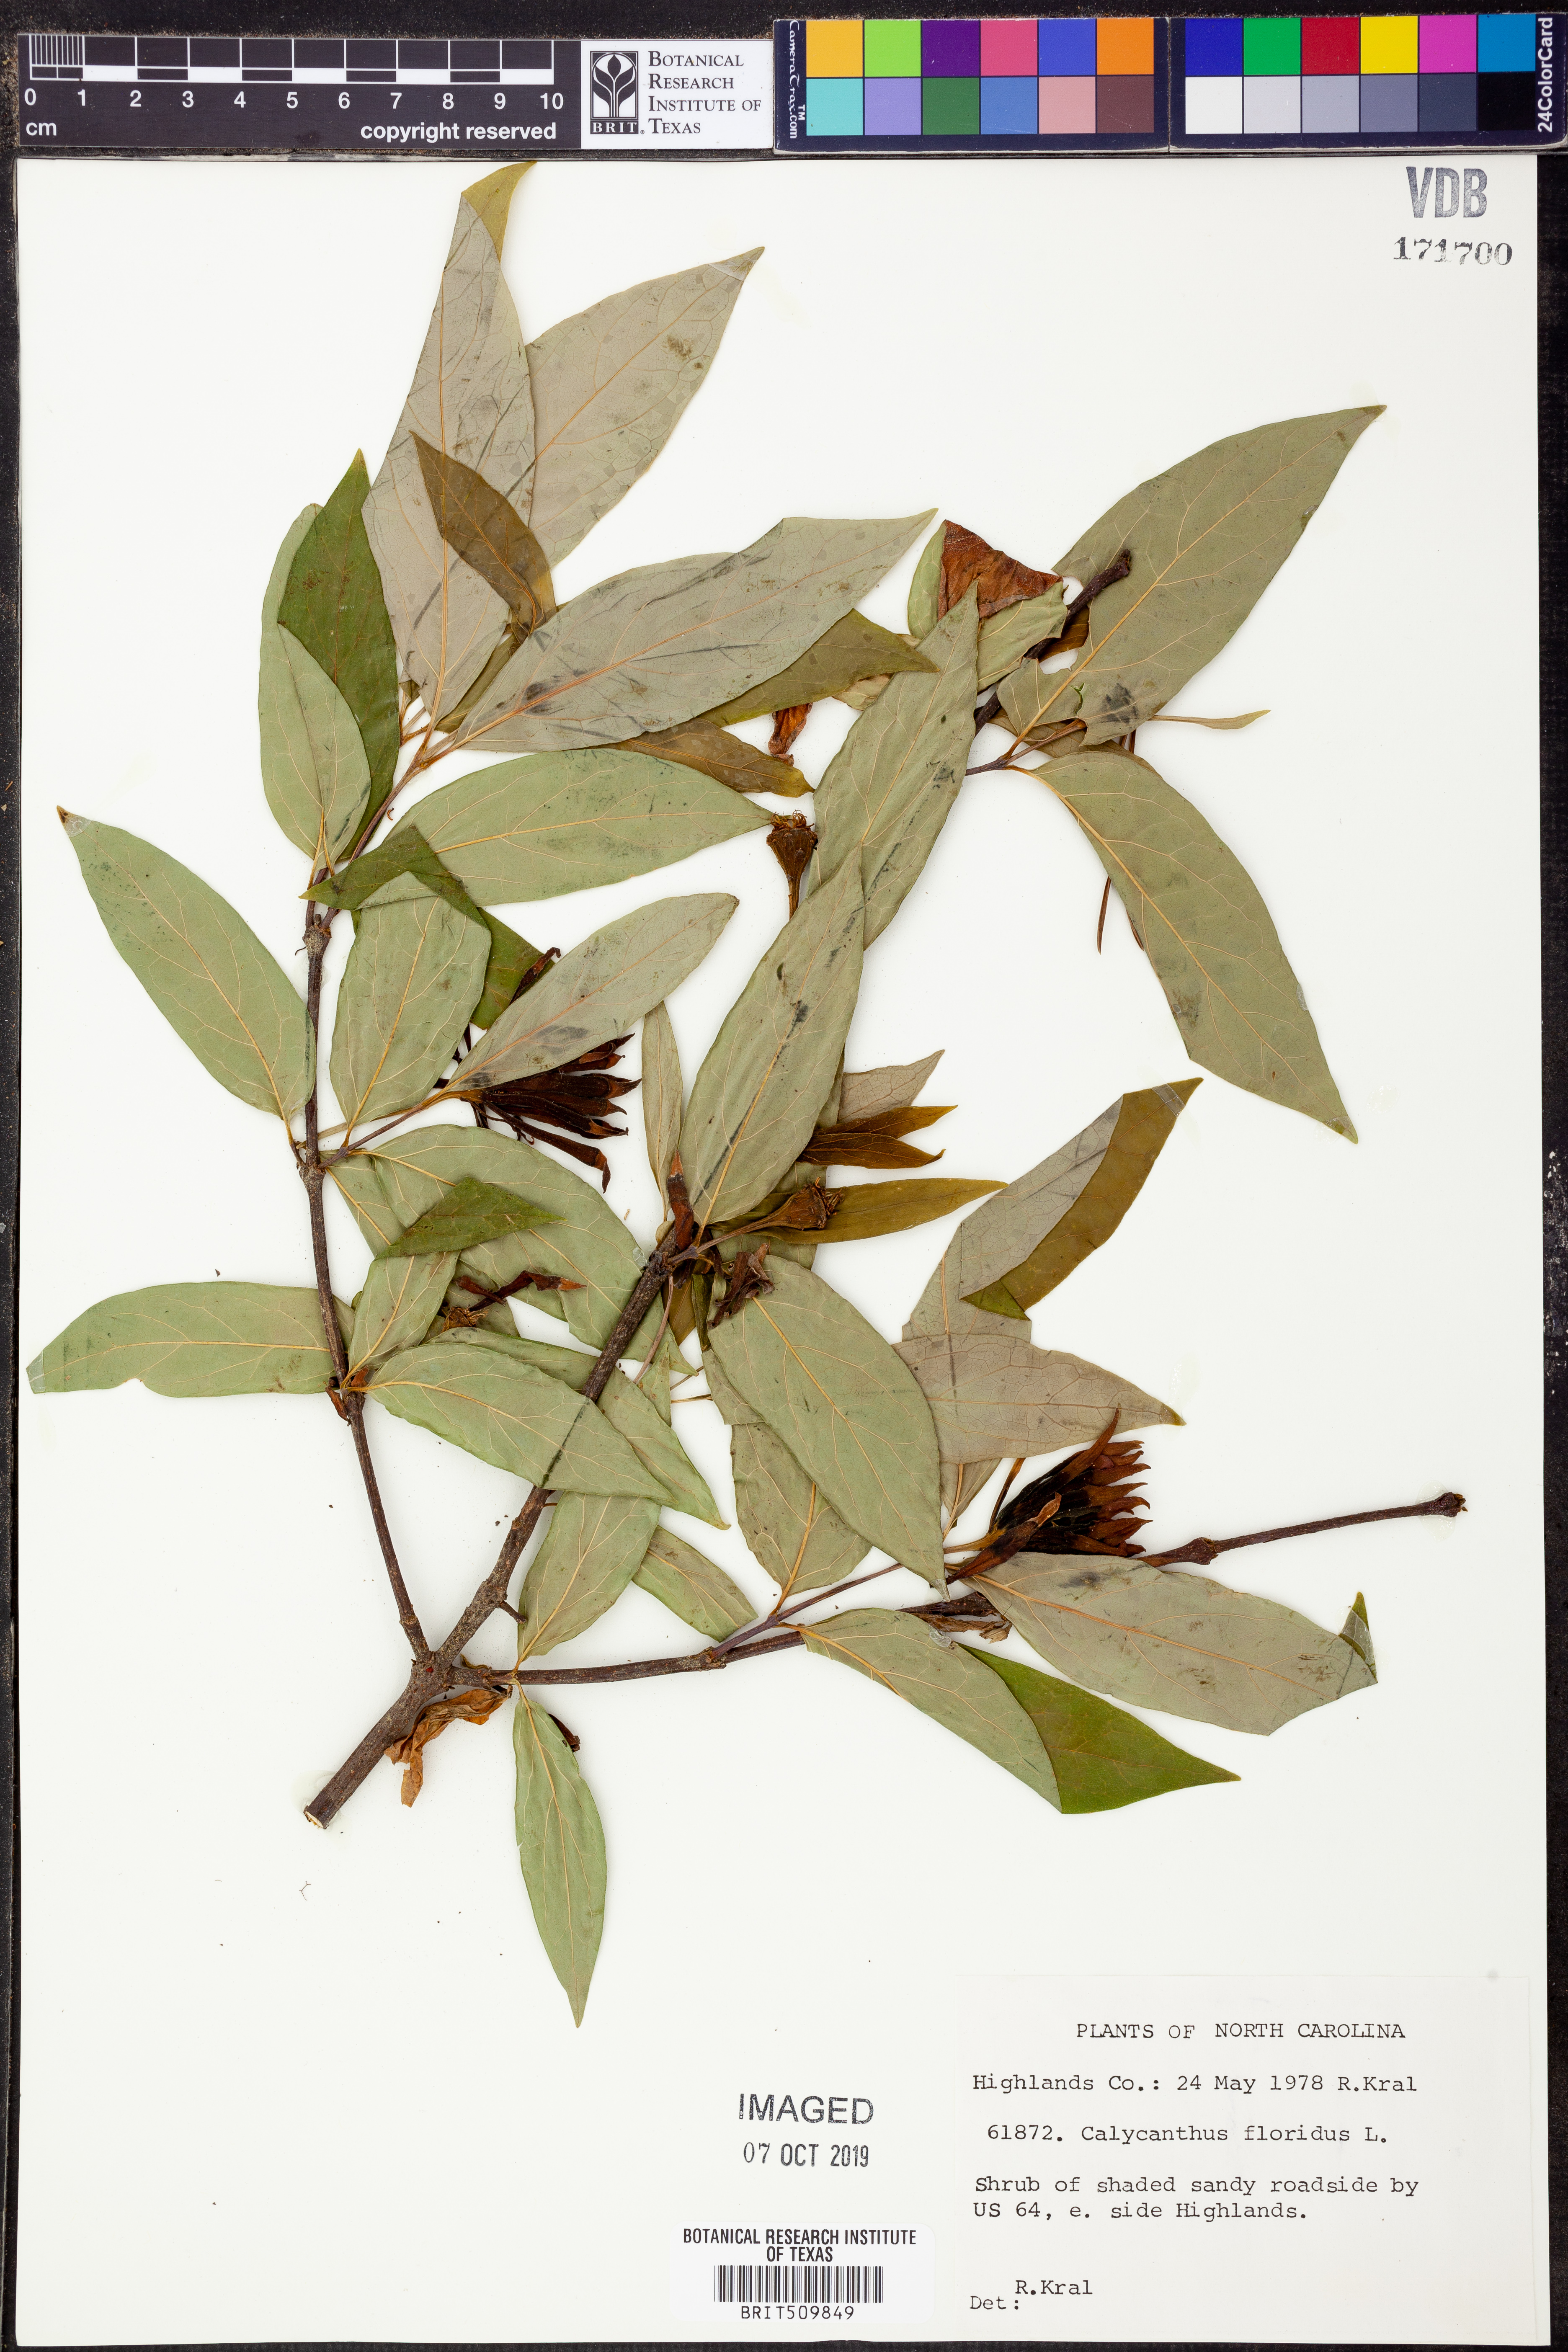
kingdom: Plantae
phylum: Tracheophyta
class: Magnoliopsida
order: Laurales
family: Calycanthaceae
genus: Calycanthus
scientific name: Calycanthus floridus
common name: Carolina-allspice
